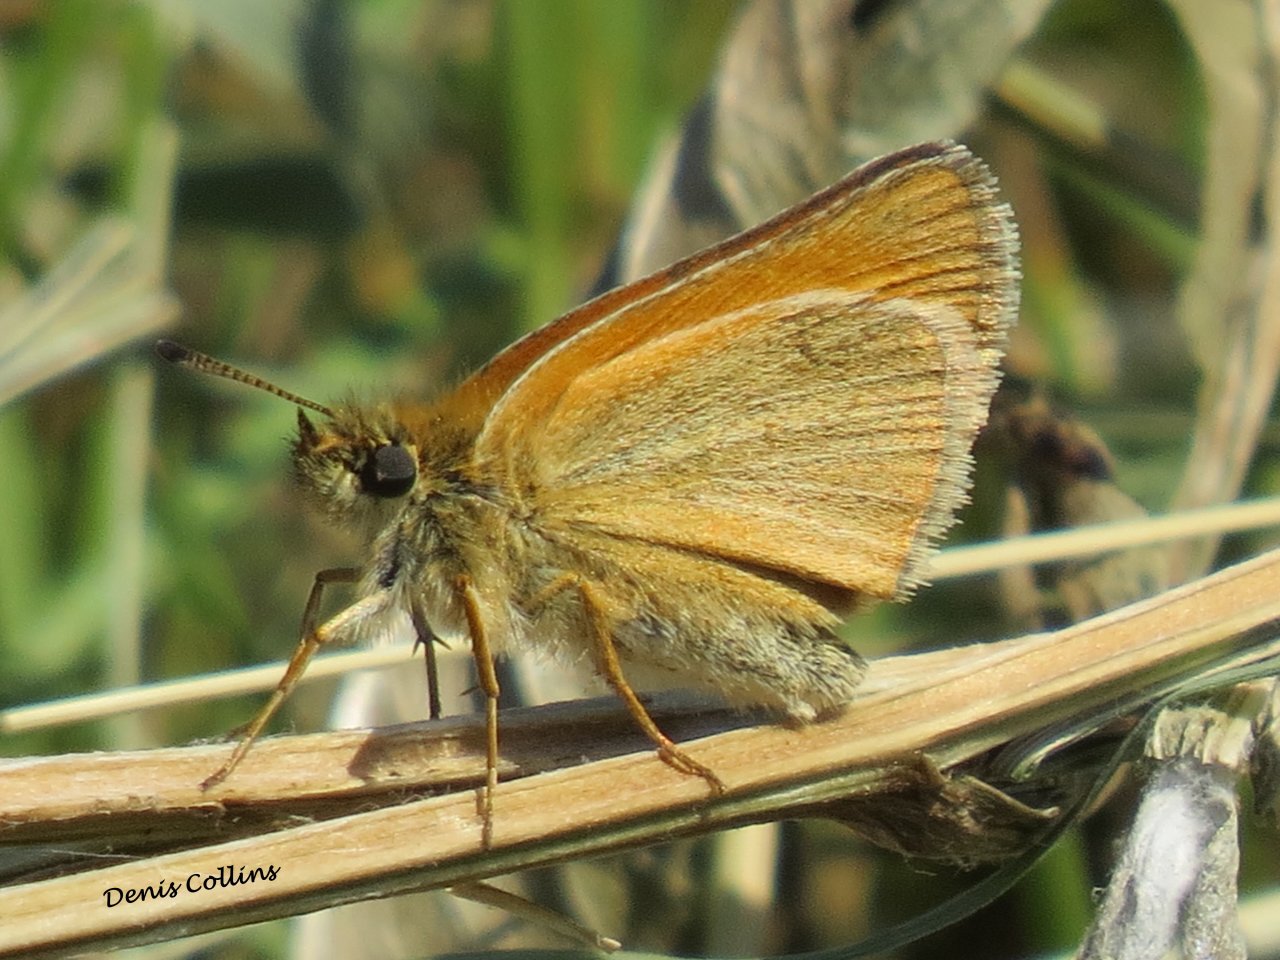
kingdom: Animalia
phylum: Arthropoda
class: Insecta
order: Lepidoptera
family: Hesperiidae
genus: Thymelicus
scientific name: Thymelicus lineola
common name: European Skipper
